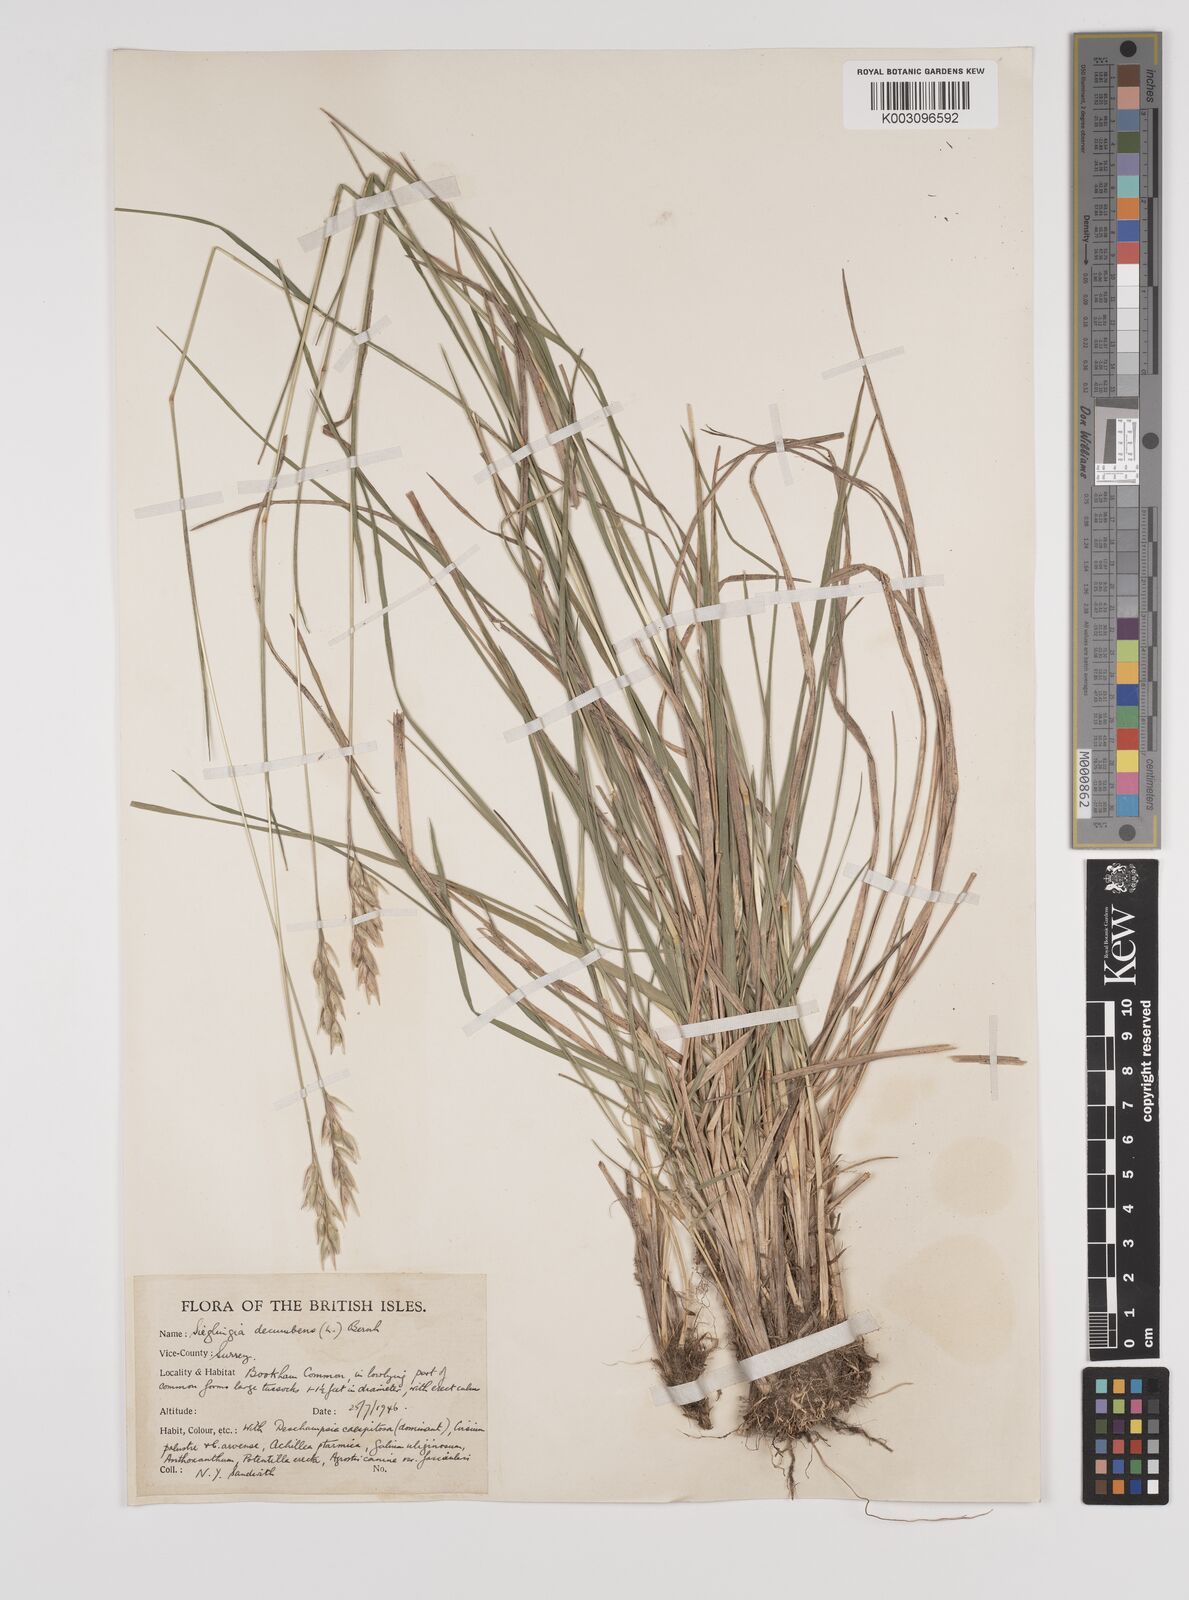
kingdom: Plantae
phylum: Tracheophyta
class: Liliopsida
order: Poales
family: Poaceae
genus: Danthonia
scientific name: Danthonia decumbens
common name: Common heathgrass
